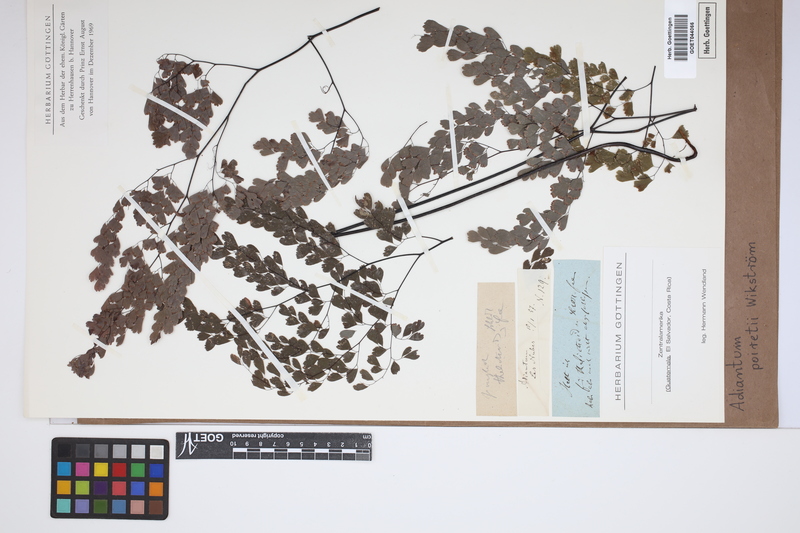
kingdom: Plantae
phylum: Tracheophyta
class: Polypodiopsida
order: Polypodiales
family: Pteridaceae
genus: Adiantum
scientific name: Adiantum poiretii
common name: Mexican maidenhair
